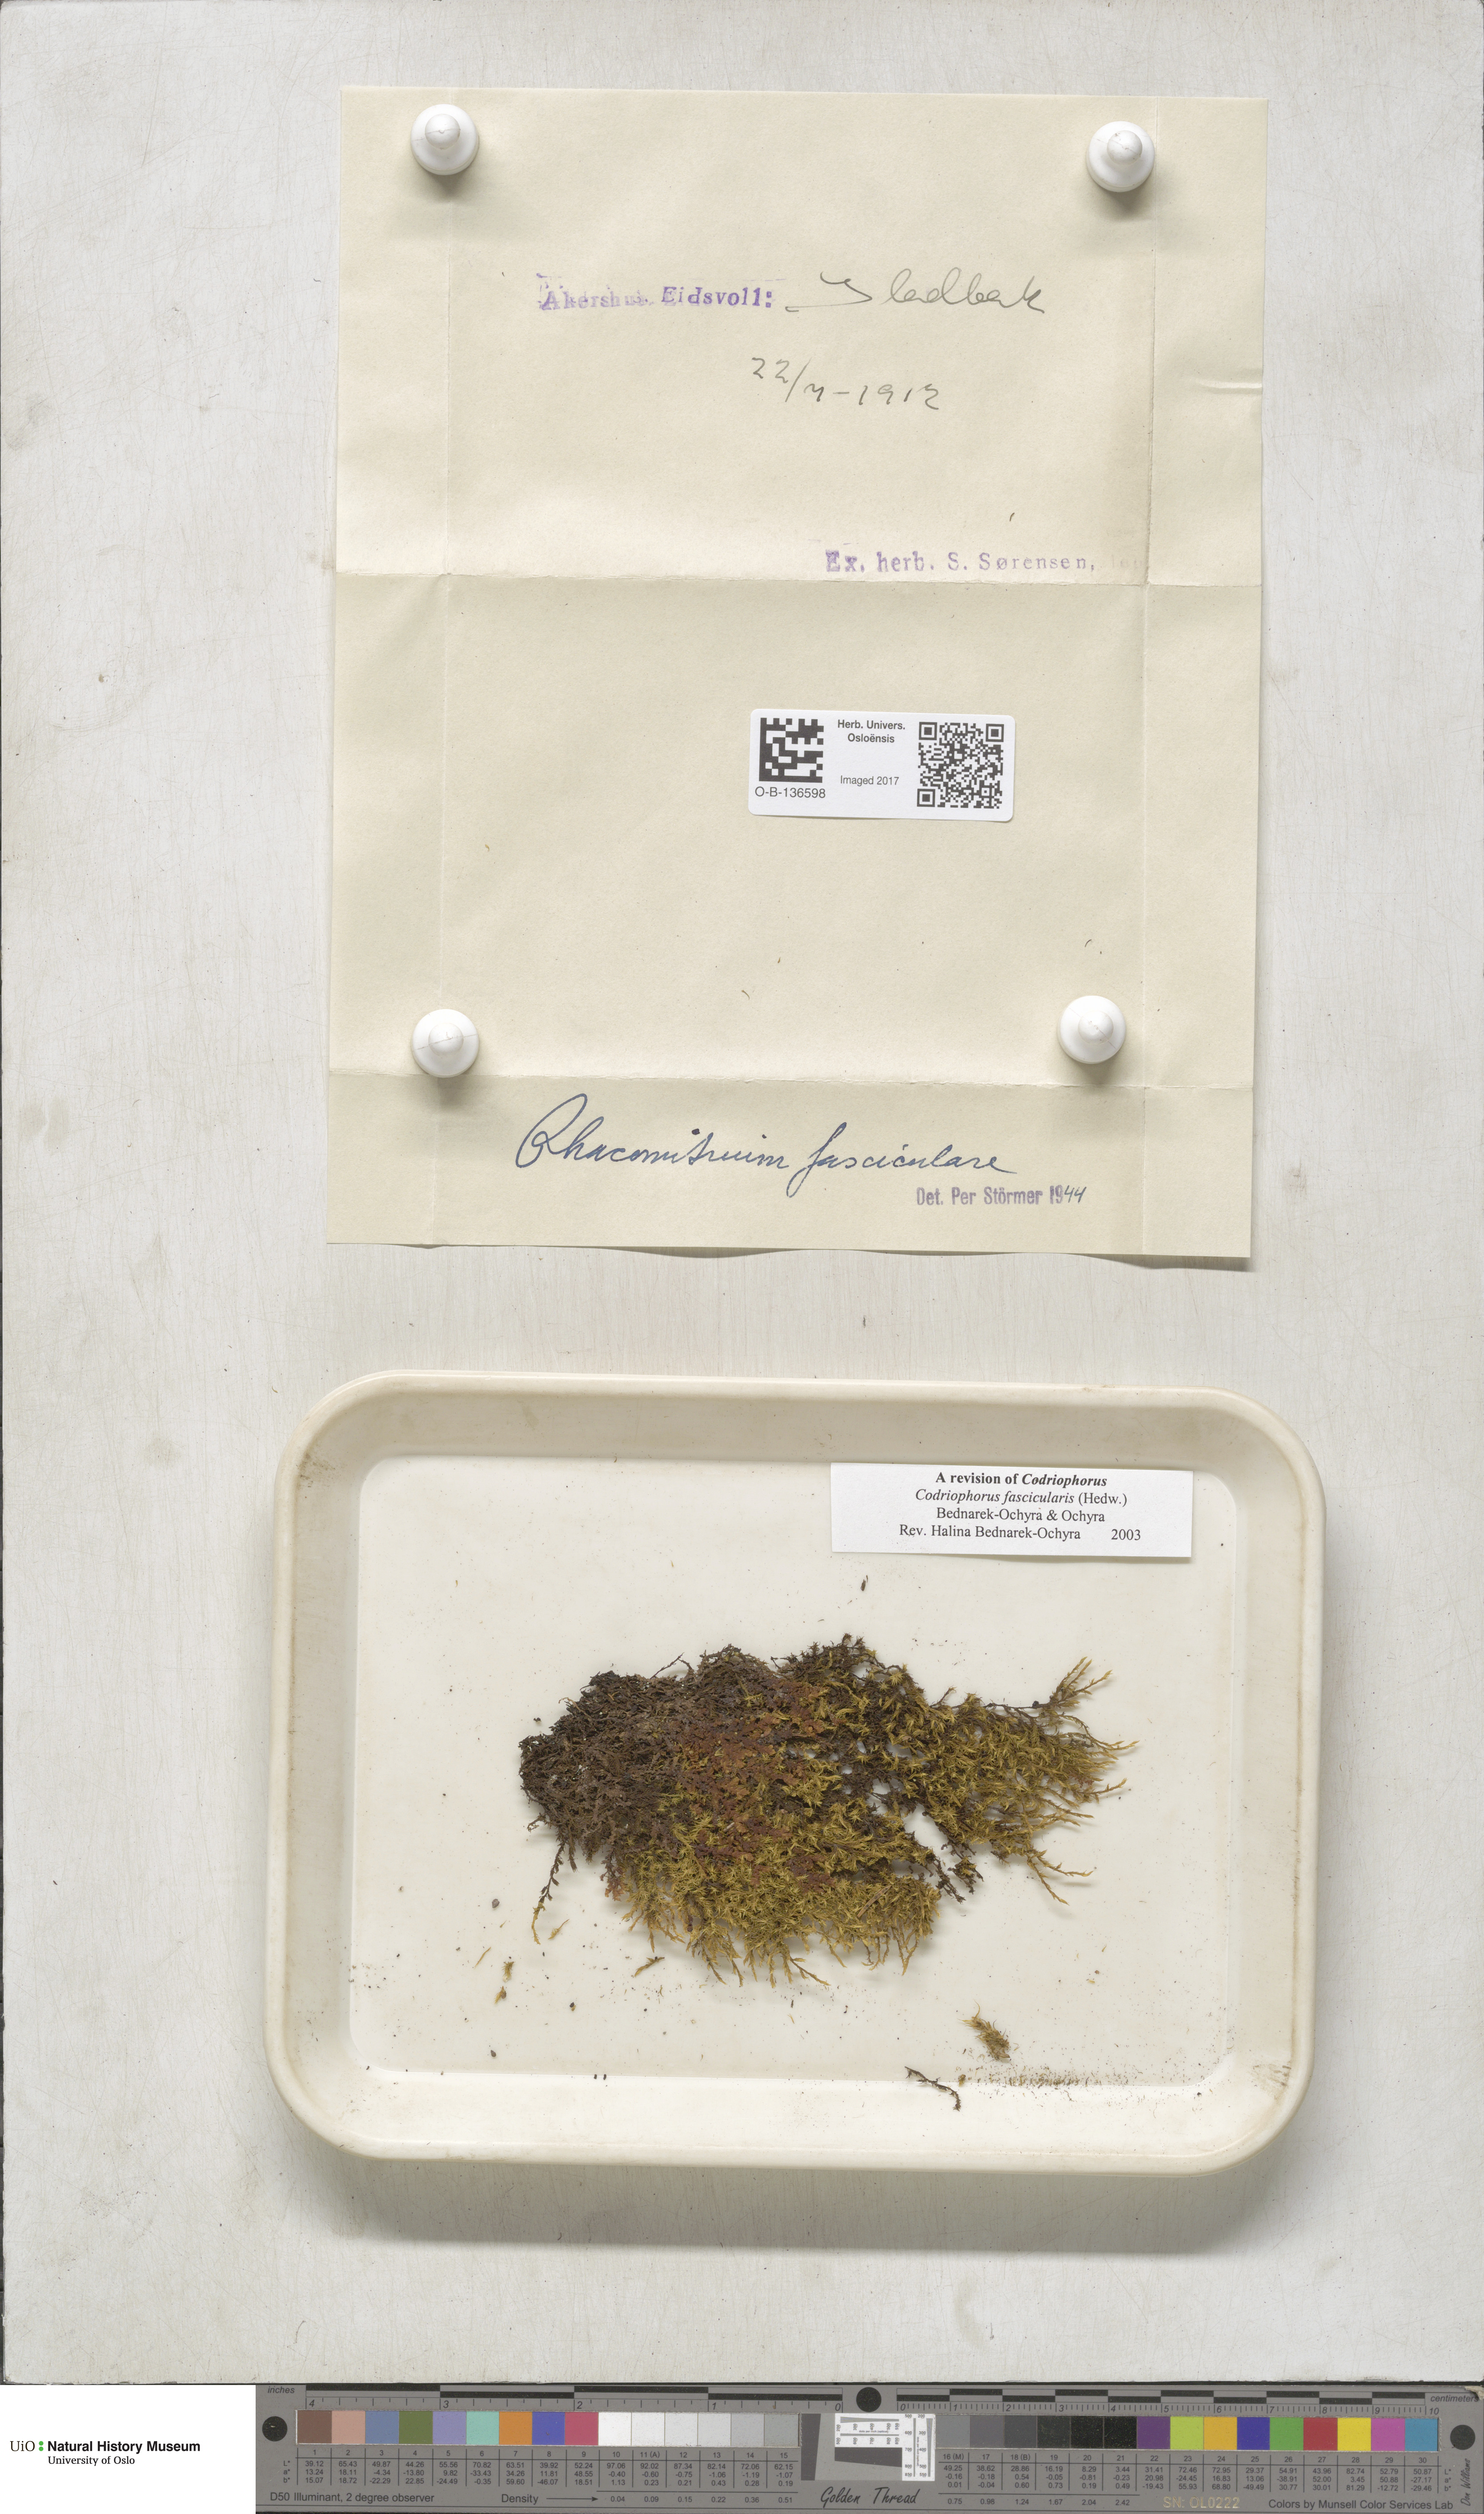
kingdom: Plantae
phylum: Bryophyta
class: Bryopsida
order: Grimmiales
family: Grimmiaceae
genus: Dilutineuron
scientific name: Dilutineuron fasciculare
